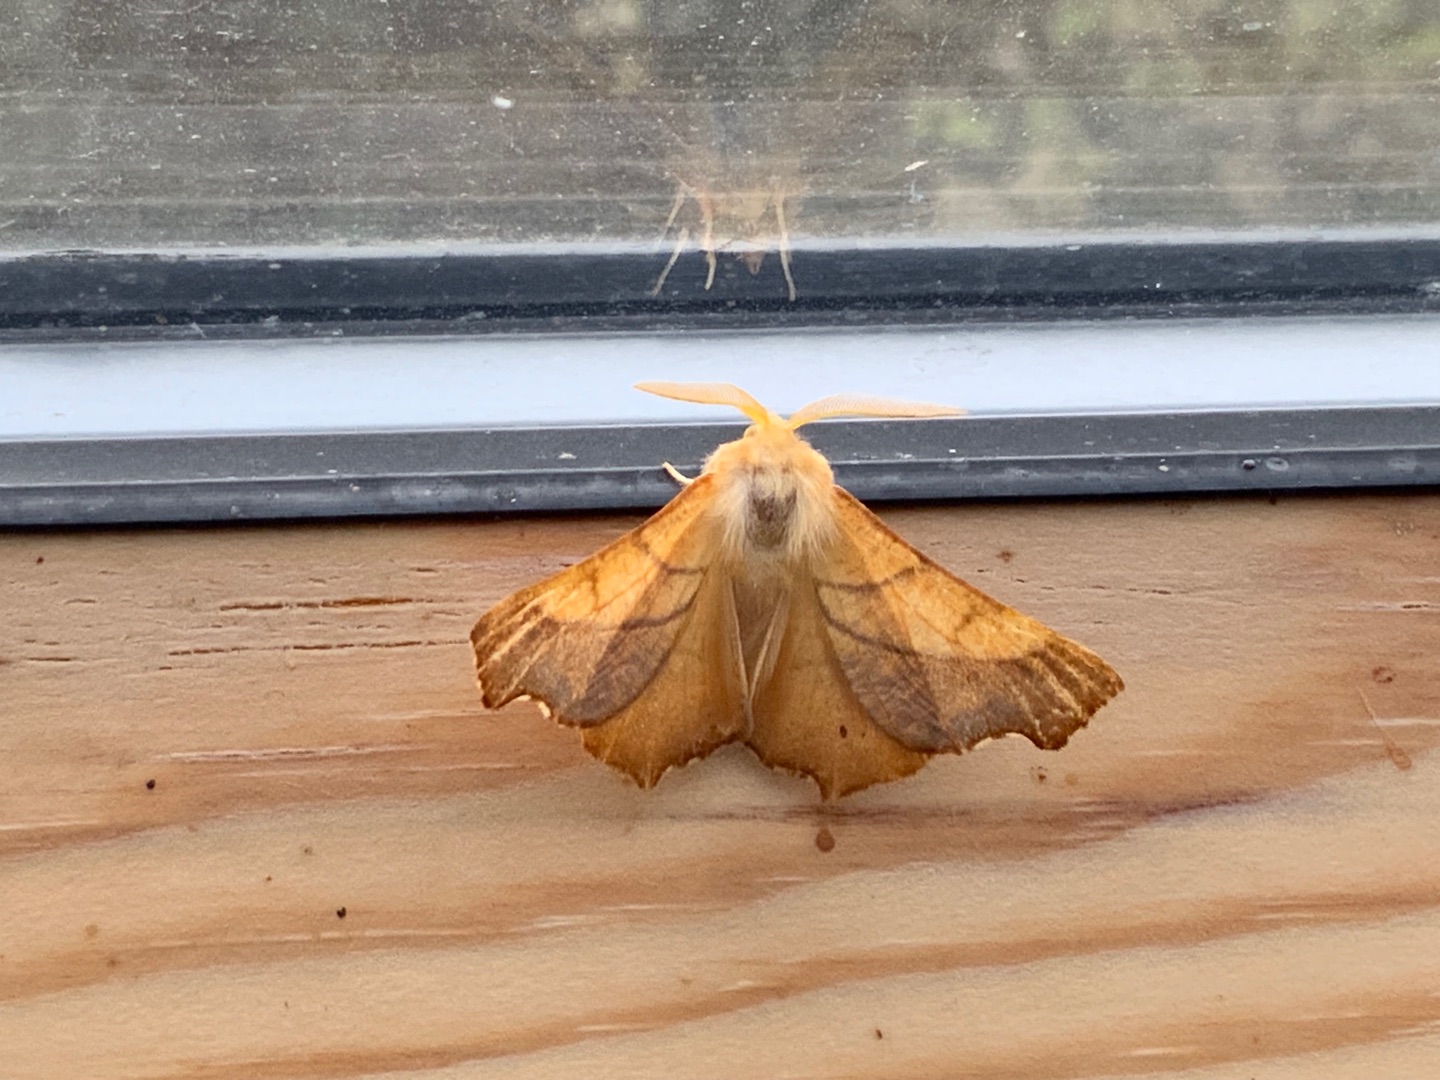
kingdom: Animalia
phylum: Arthropoda
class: Insecta
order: Lepidoptera
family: Geometridae
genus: Ennomos
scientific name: Ennomos fuscantaria
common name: Asketandmåler
